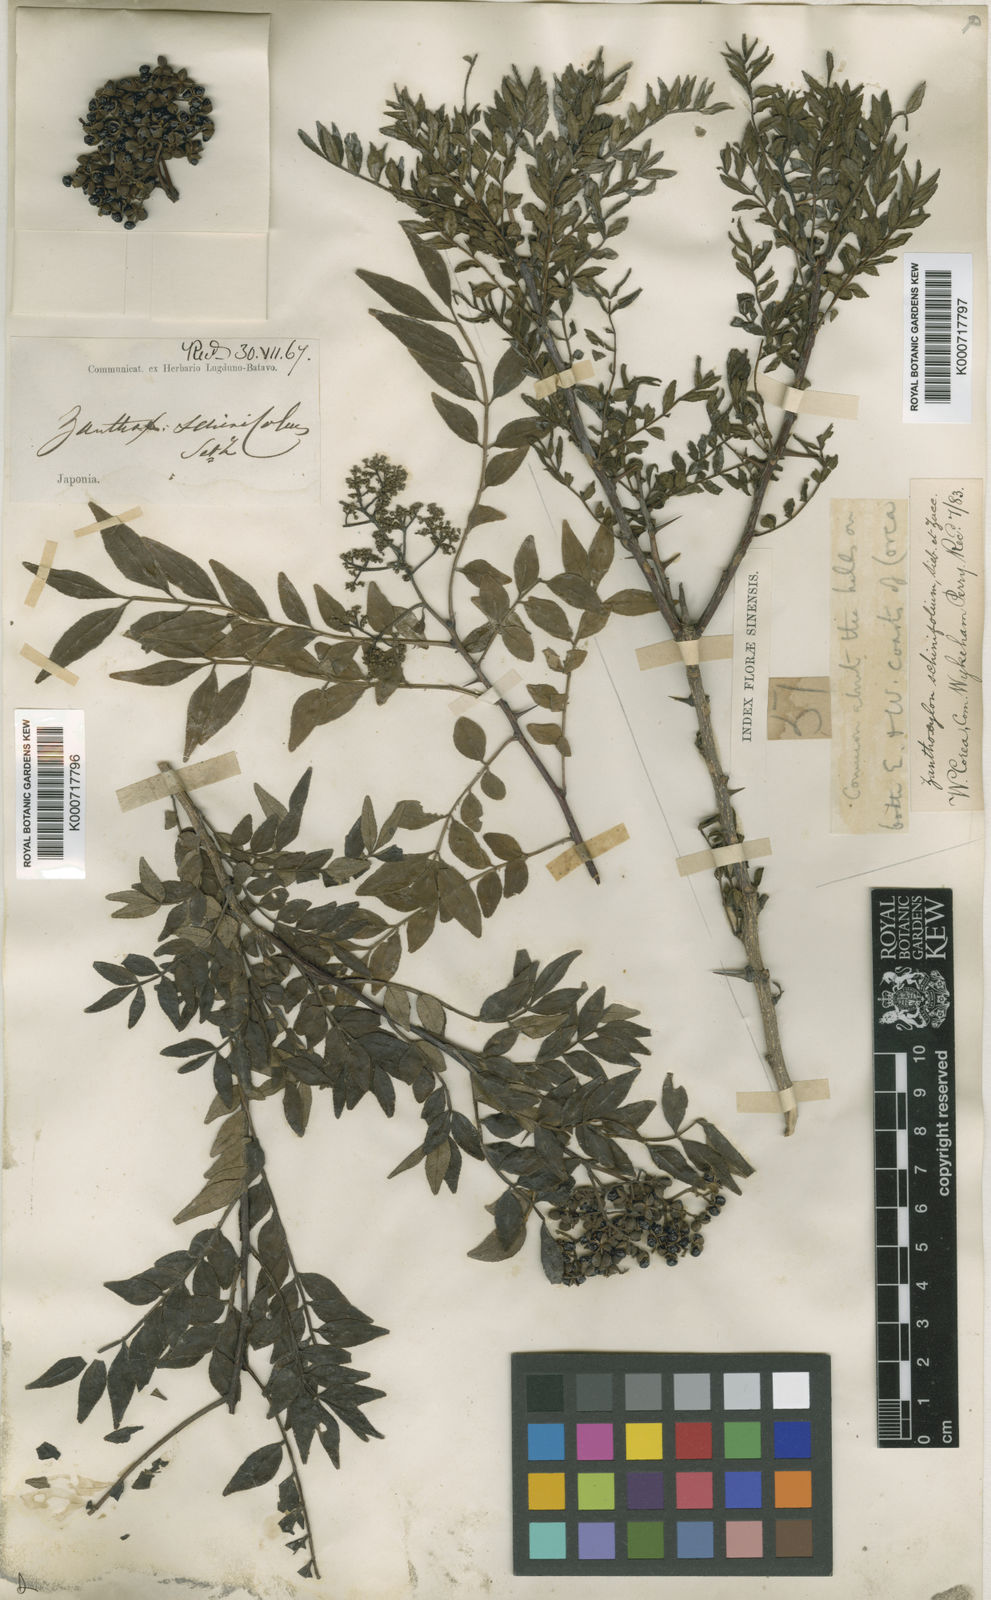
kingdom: Plantae
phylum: Tracheophyta
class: Magnoliopsida
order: Sapindales
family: Rutaceae
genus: Zanthoxylum
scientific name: Zanthoxylum schinifolium
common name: Sichuan-pepper
